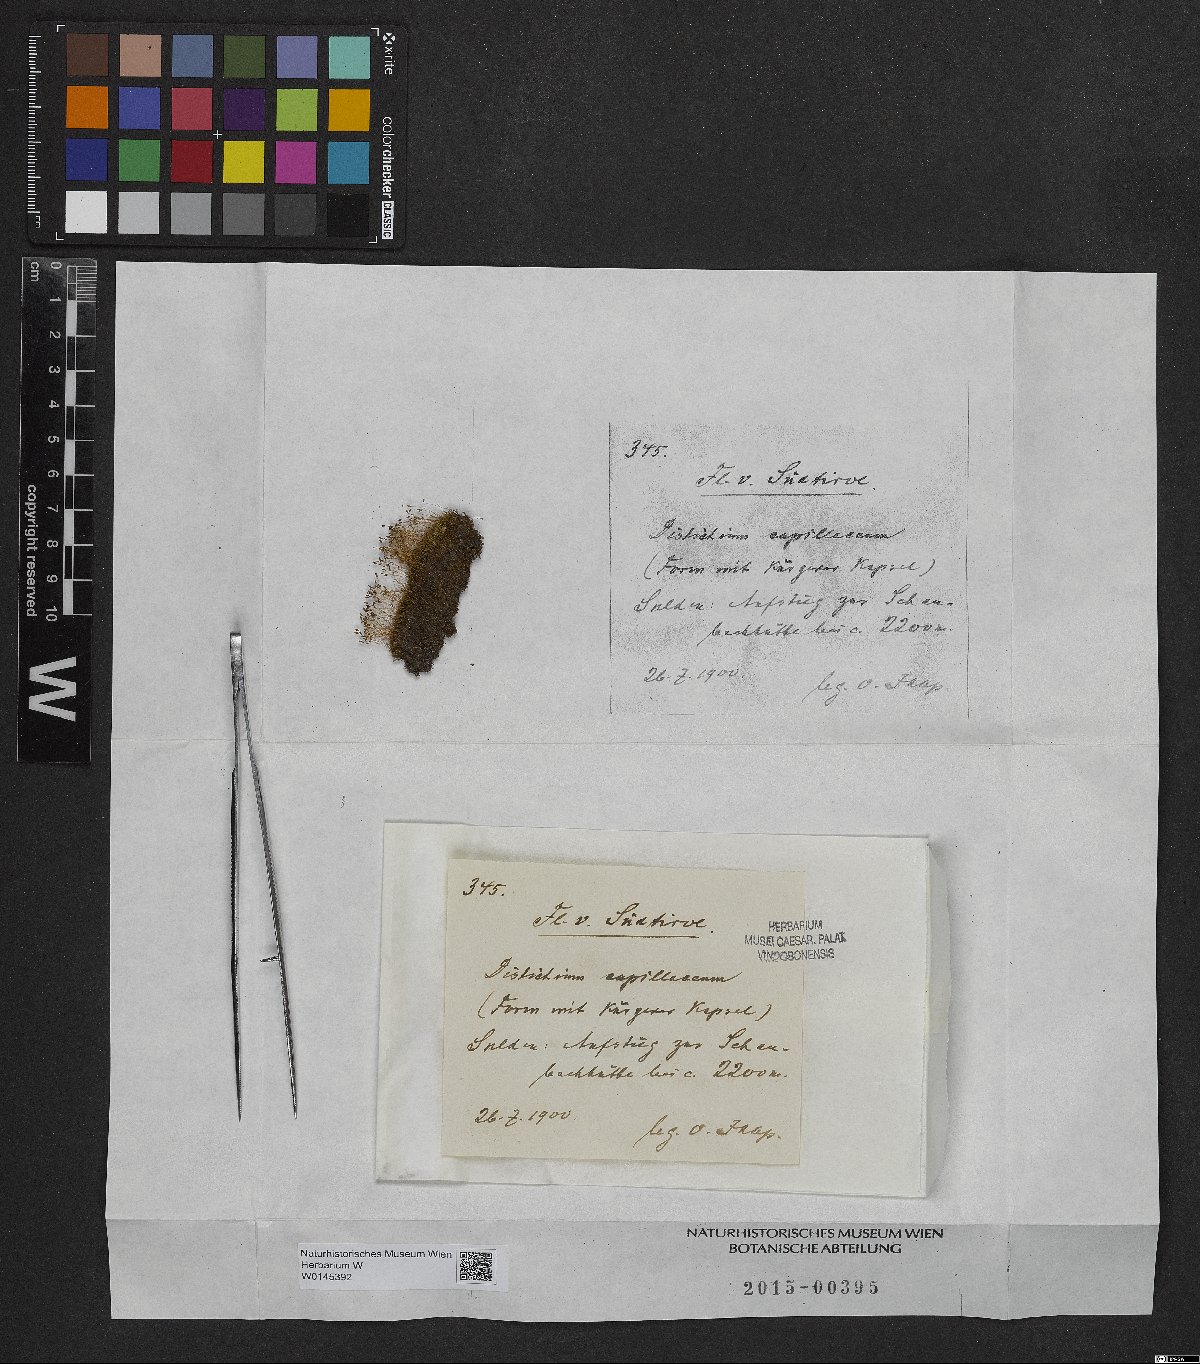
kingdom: Plantae
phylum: Bryophyta
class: Bryopsida
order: Scouleriales
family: Distichiaceae
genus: Distichium
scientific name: Distichium capillaceum
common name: Erect-fruited iris moss
